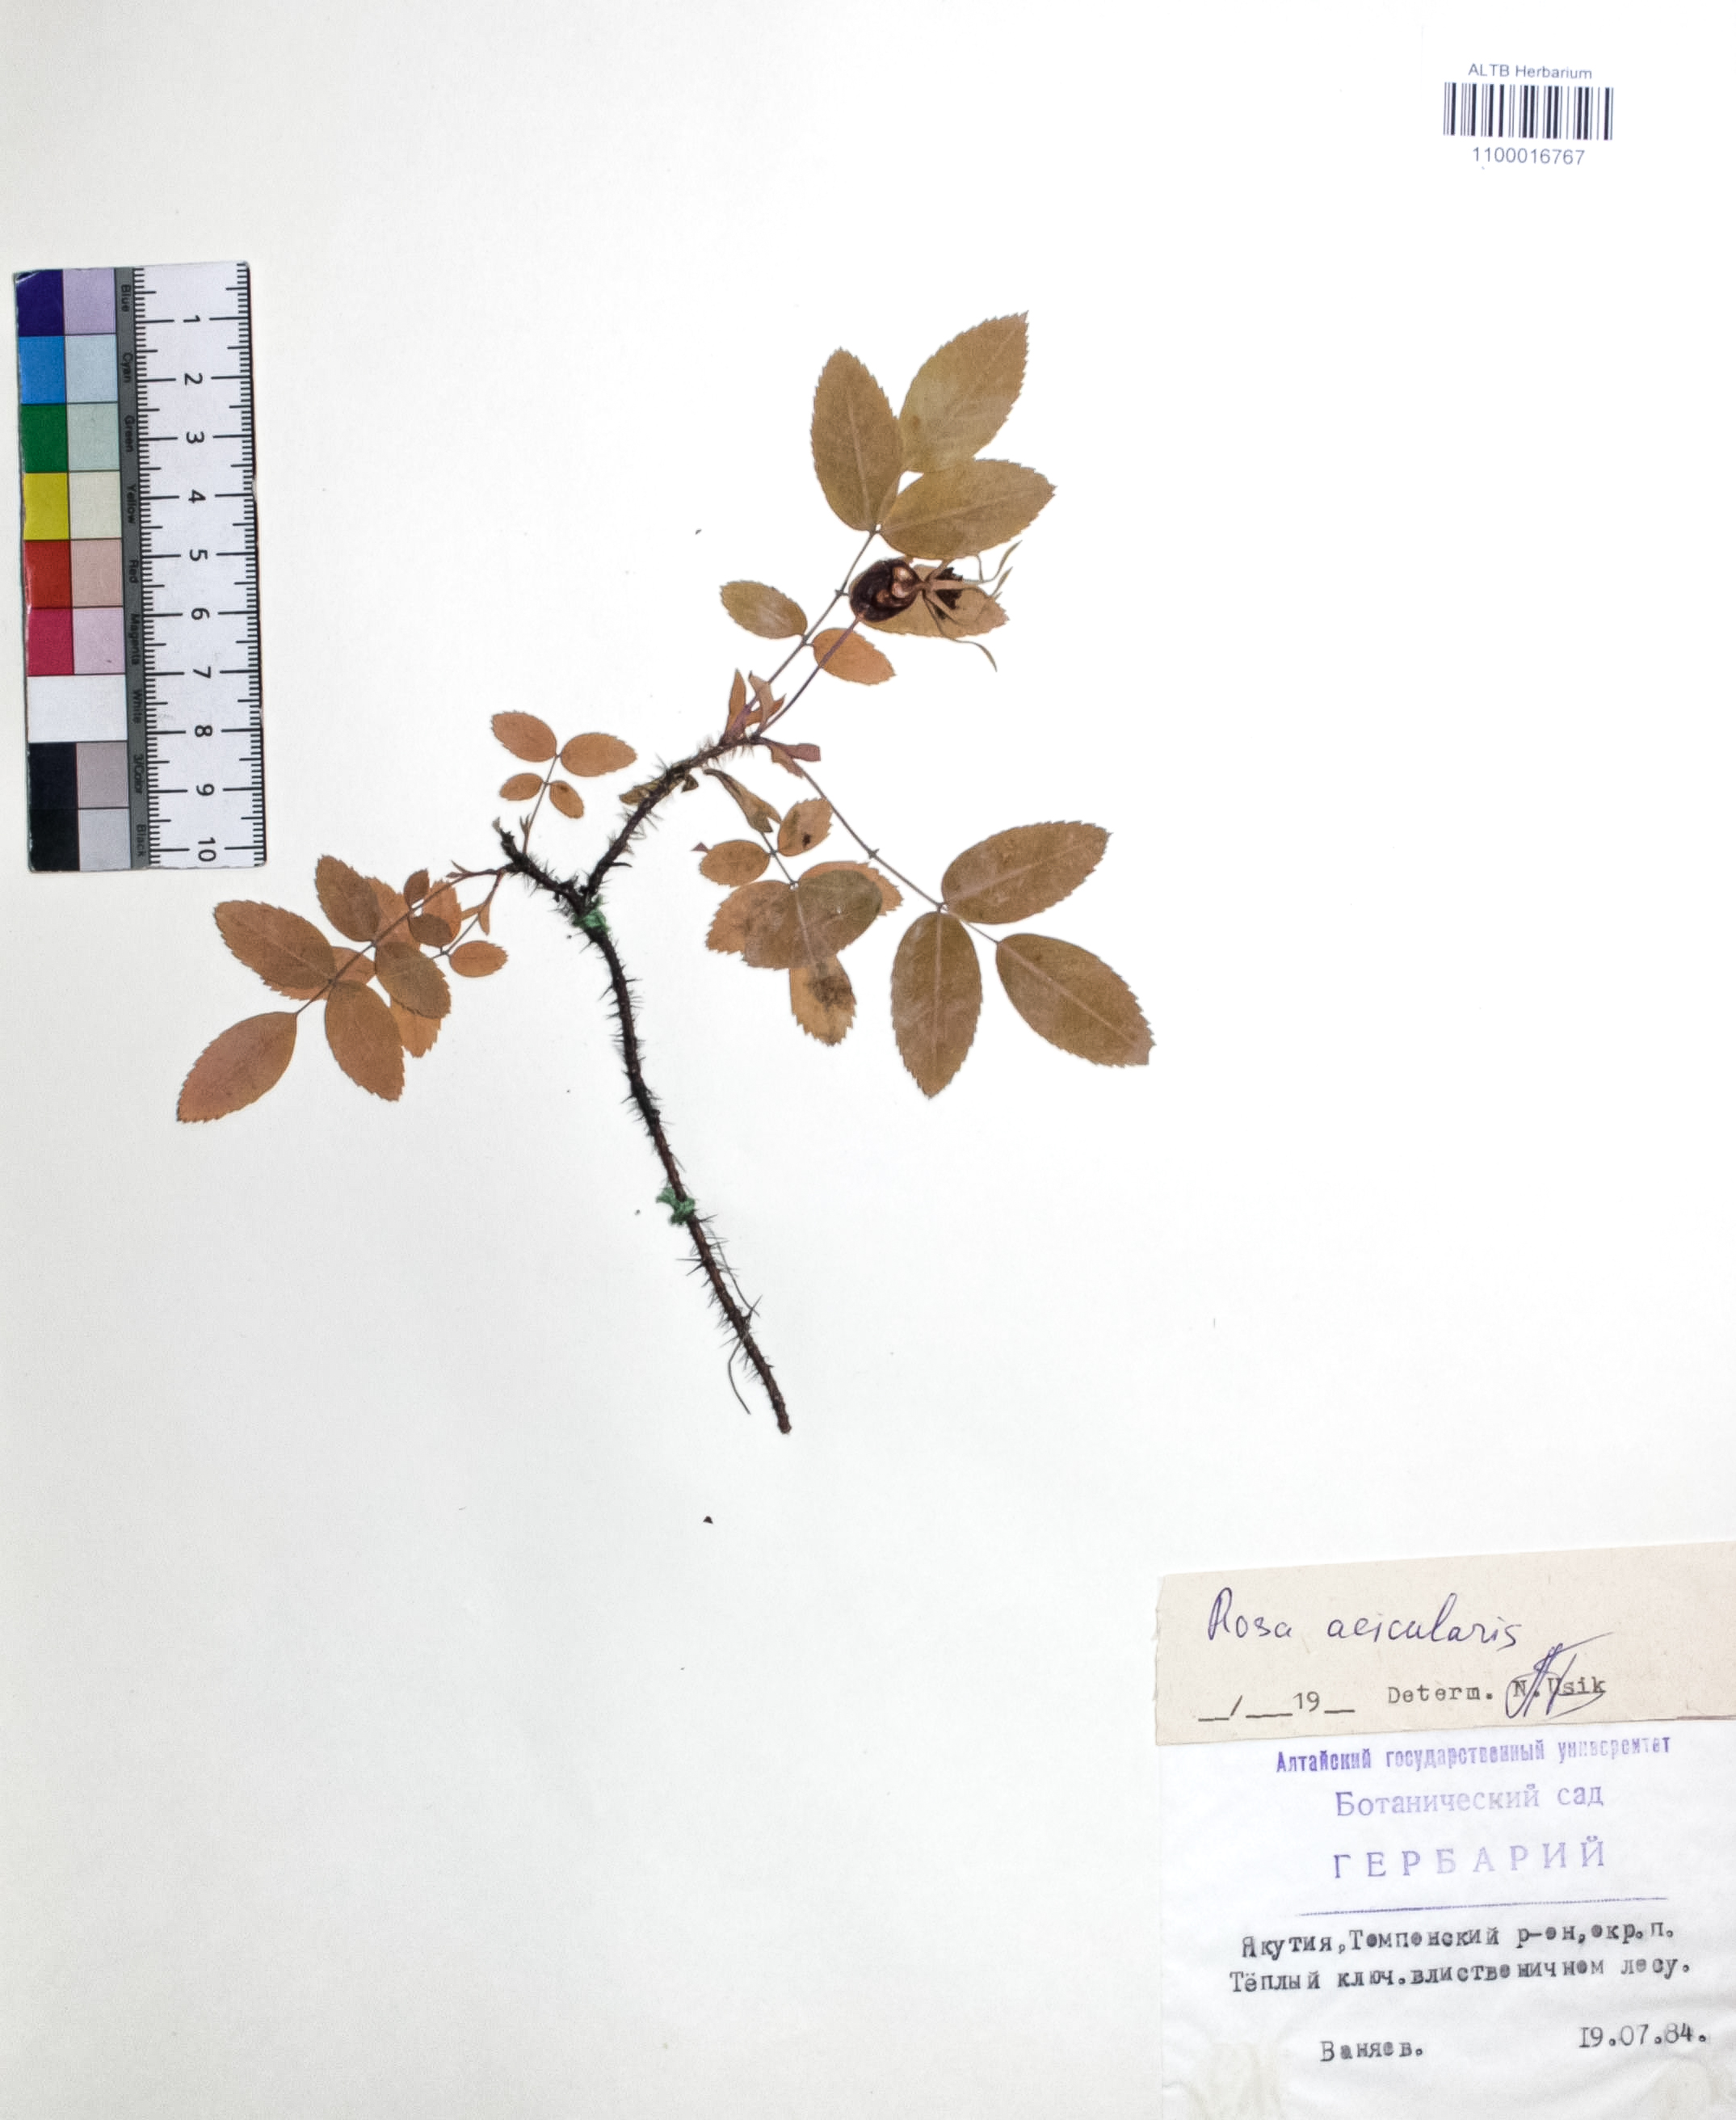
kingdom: Plantae
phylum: Tracheophyta
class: Magnoliopsida
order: Rosales
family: Rosaceae
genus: Rosa
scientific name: Rosa acicularis
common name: Prickly rose
